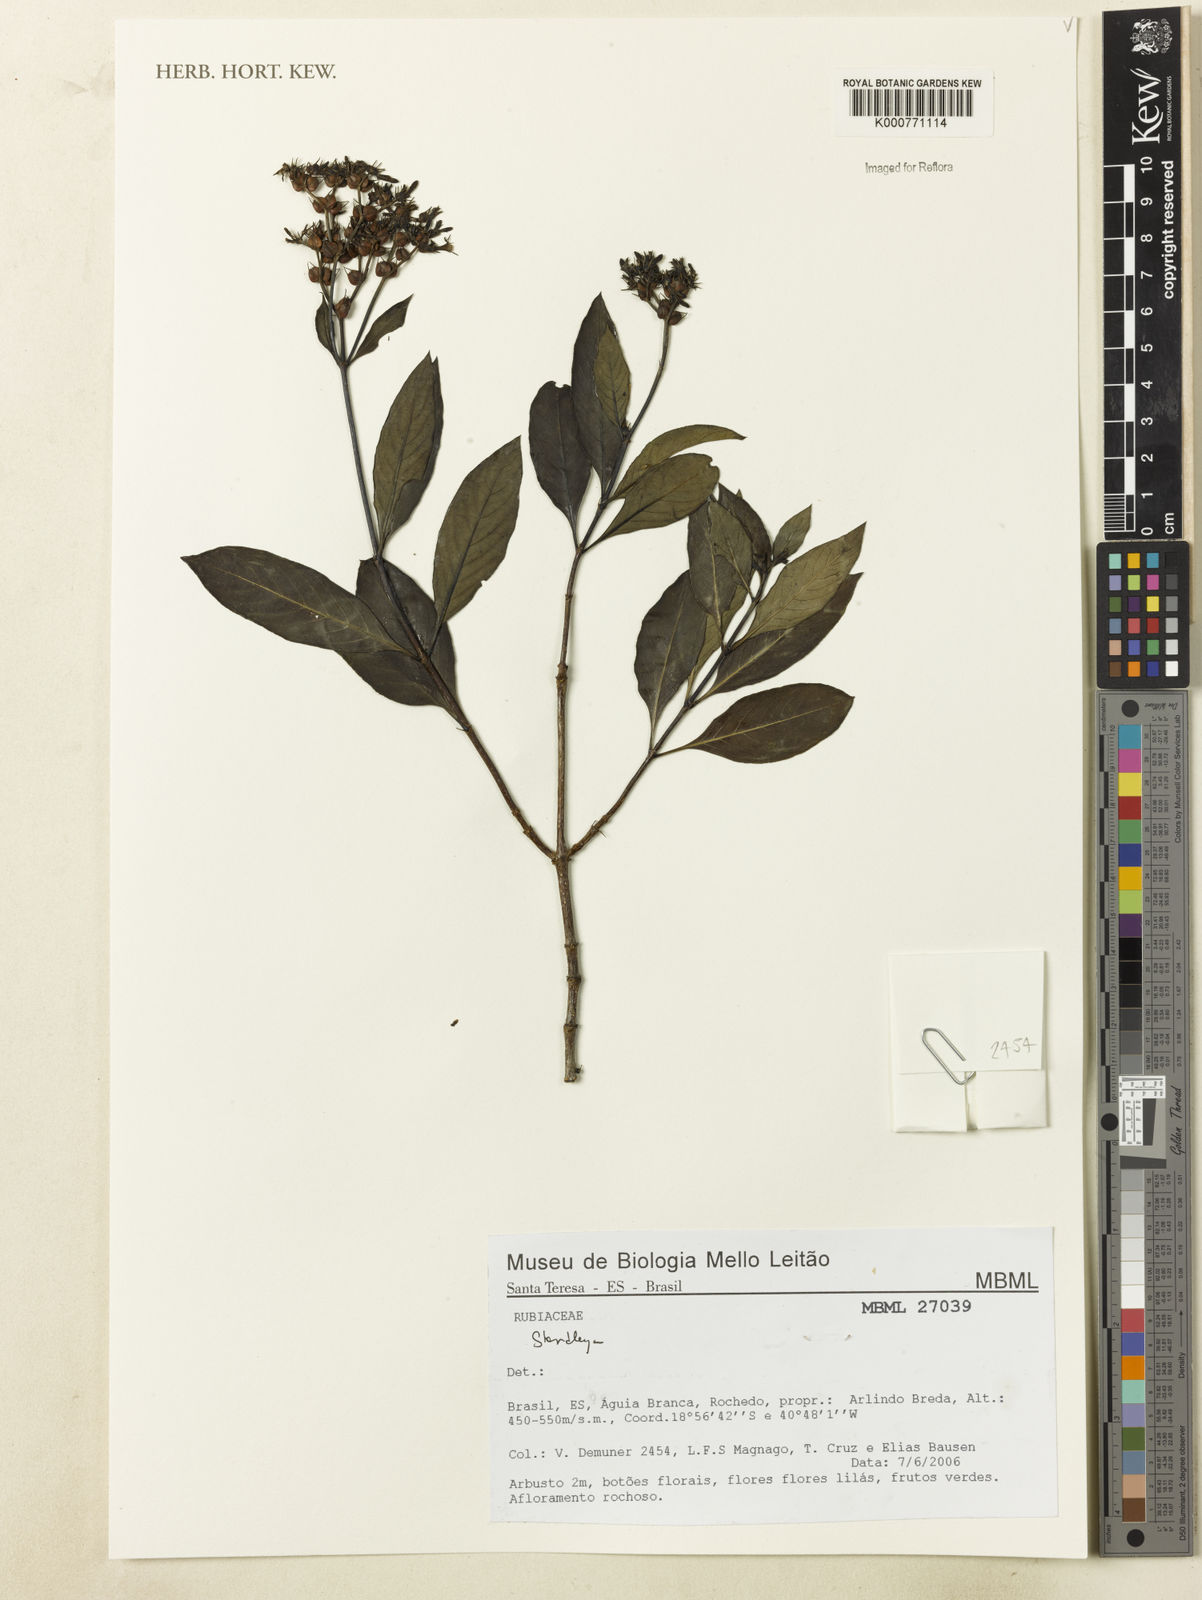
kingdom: Plantae
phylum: Tracheophyta
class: Magnoliopsida
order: Gentianales
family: Rubiaceae
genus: Standleya
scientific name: Standleya
